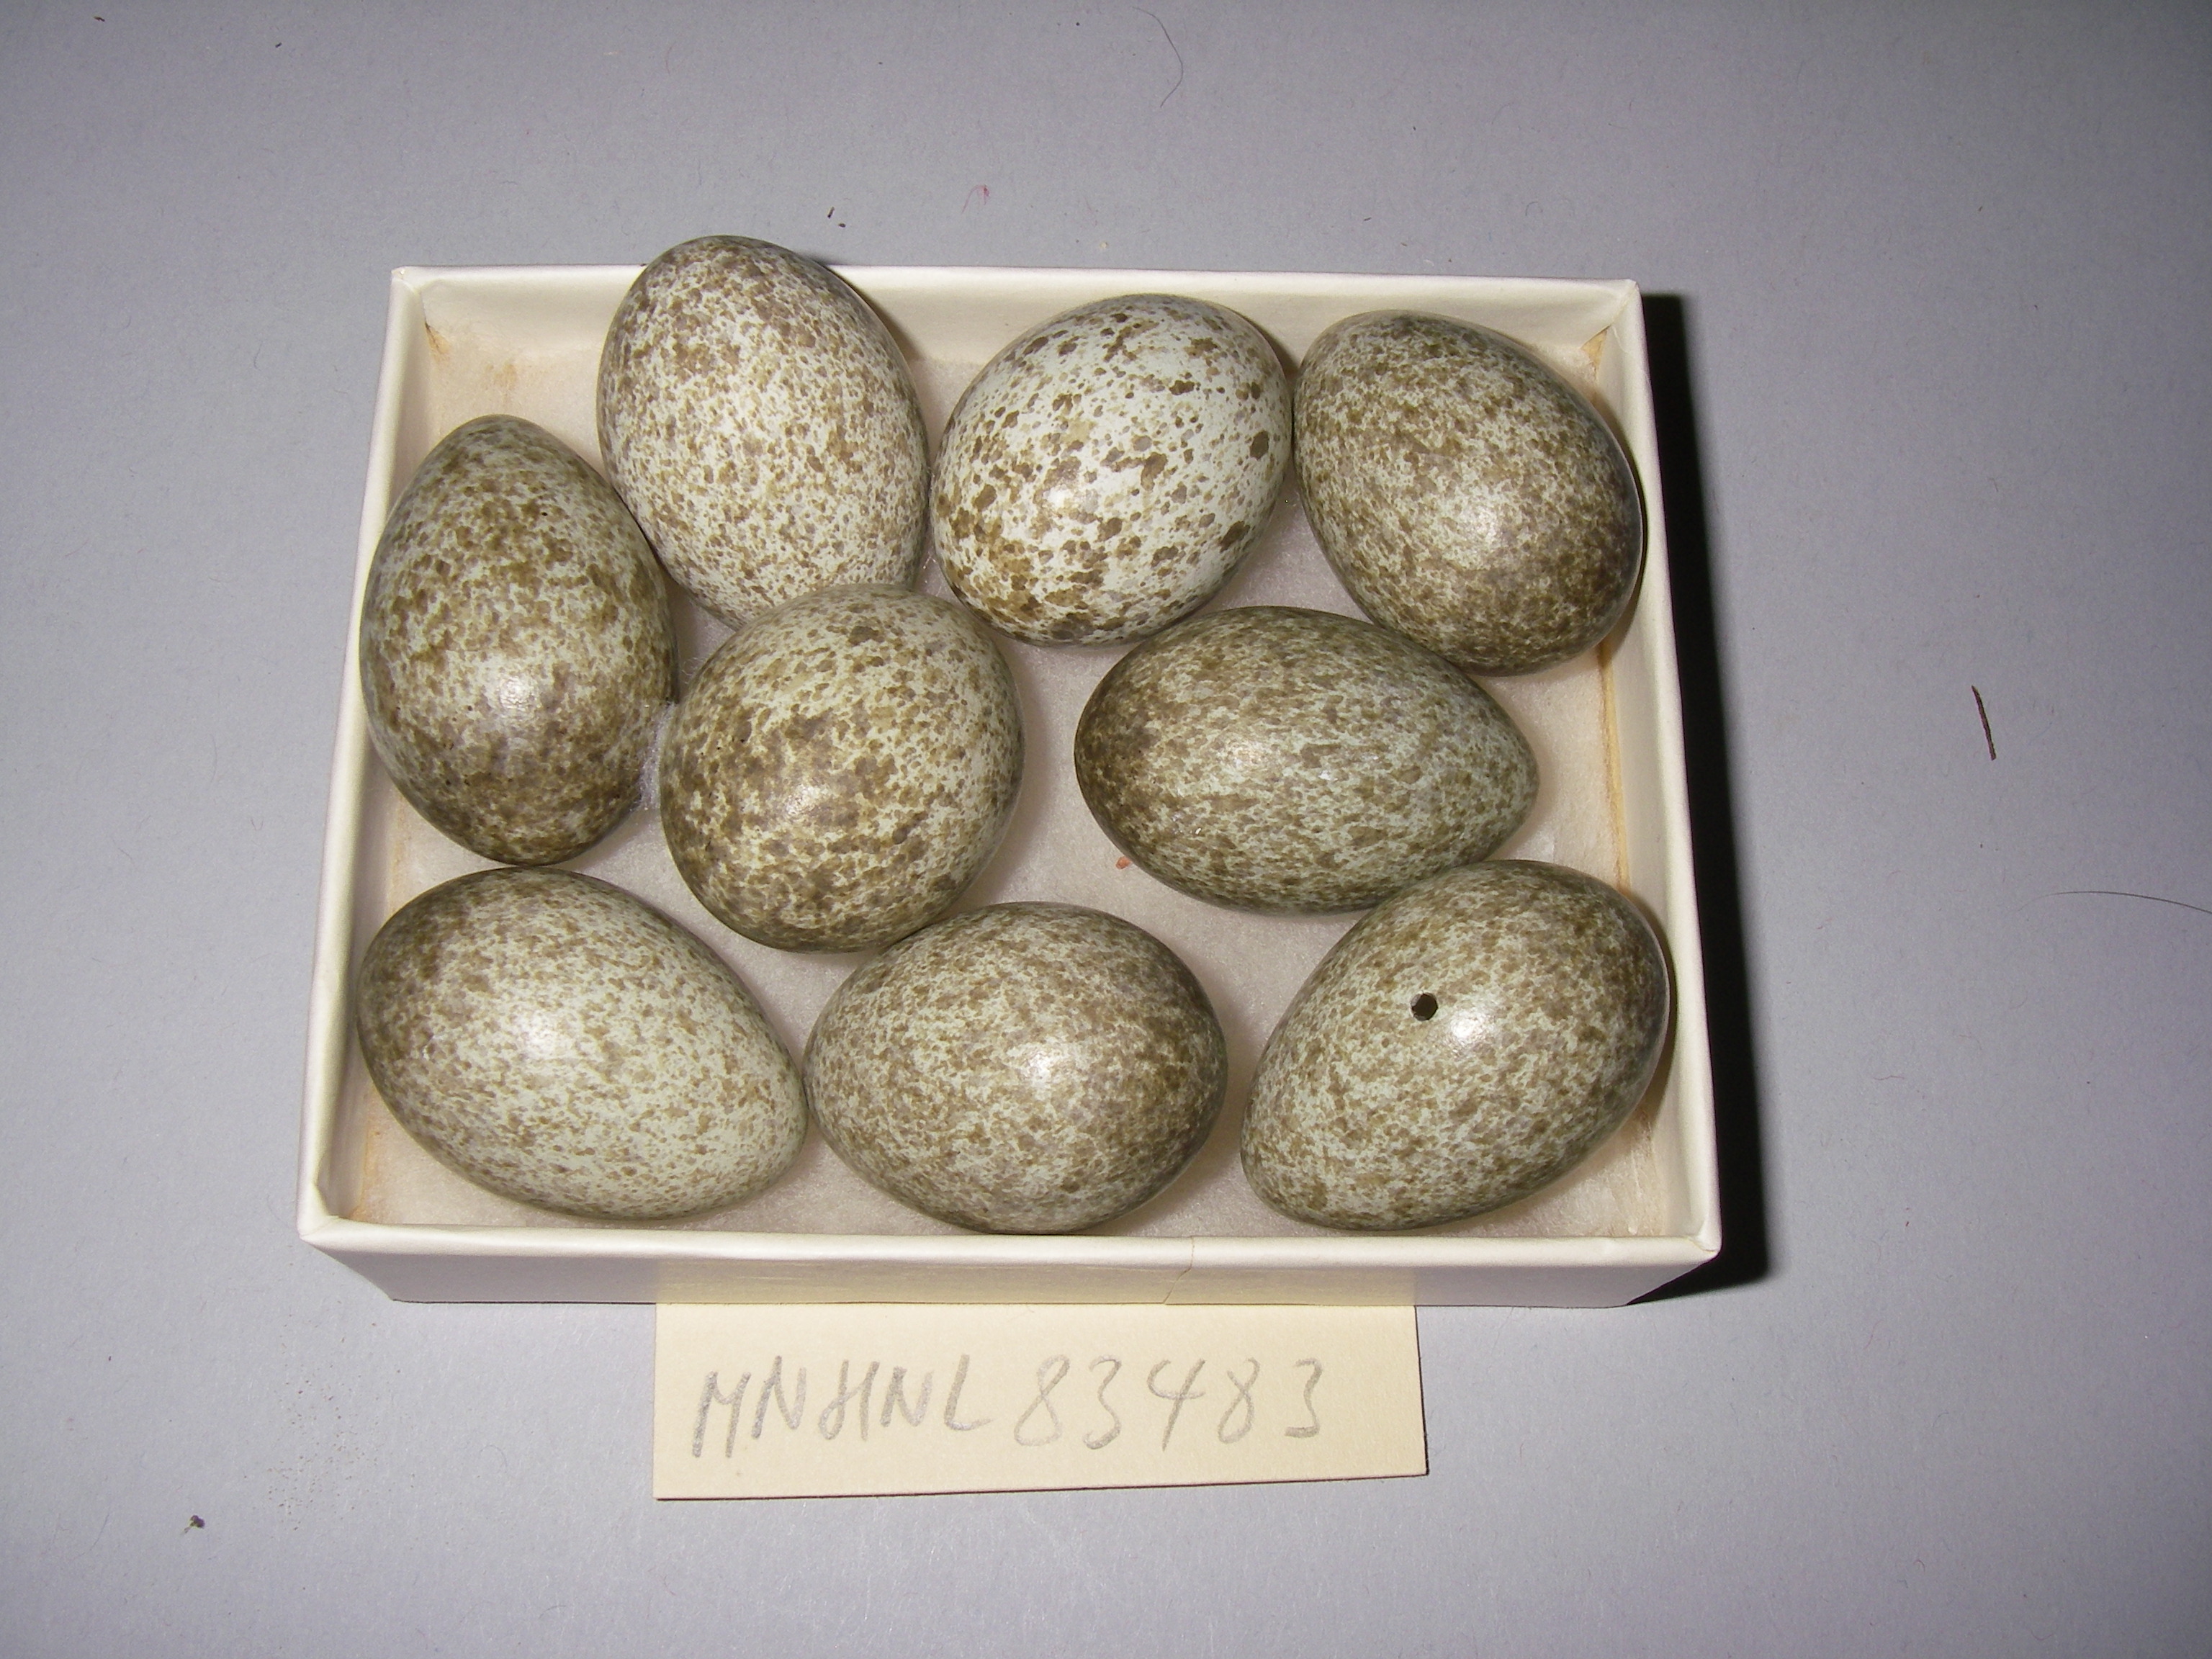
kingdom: Animalia
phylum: Chordata
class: Aves
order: Passeriformes
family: Corvidae
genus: Pica
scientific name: Pica pica
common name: Eurasian magpie
